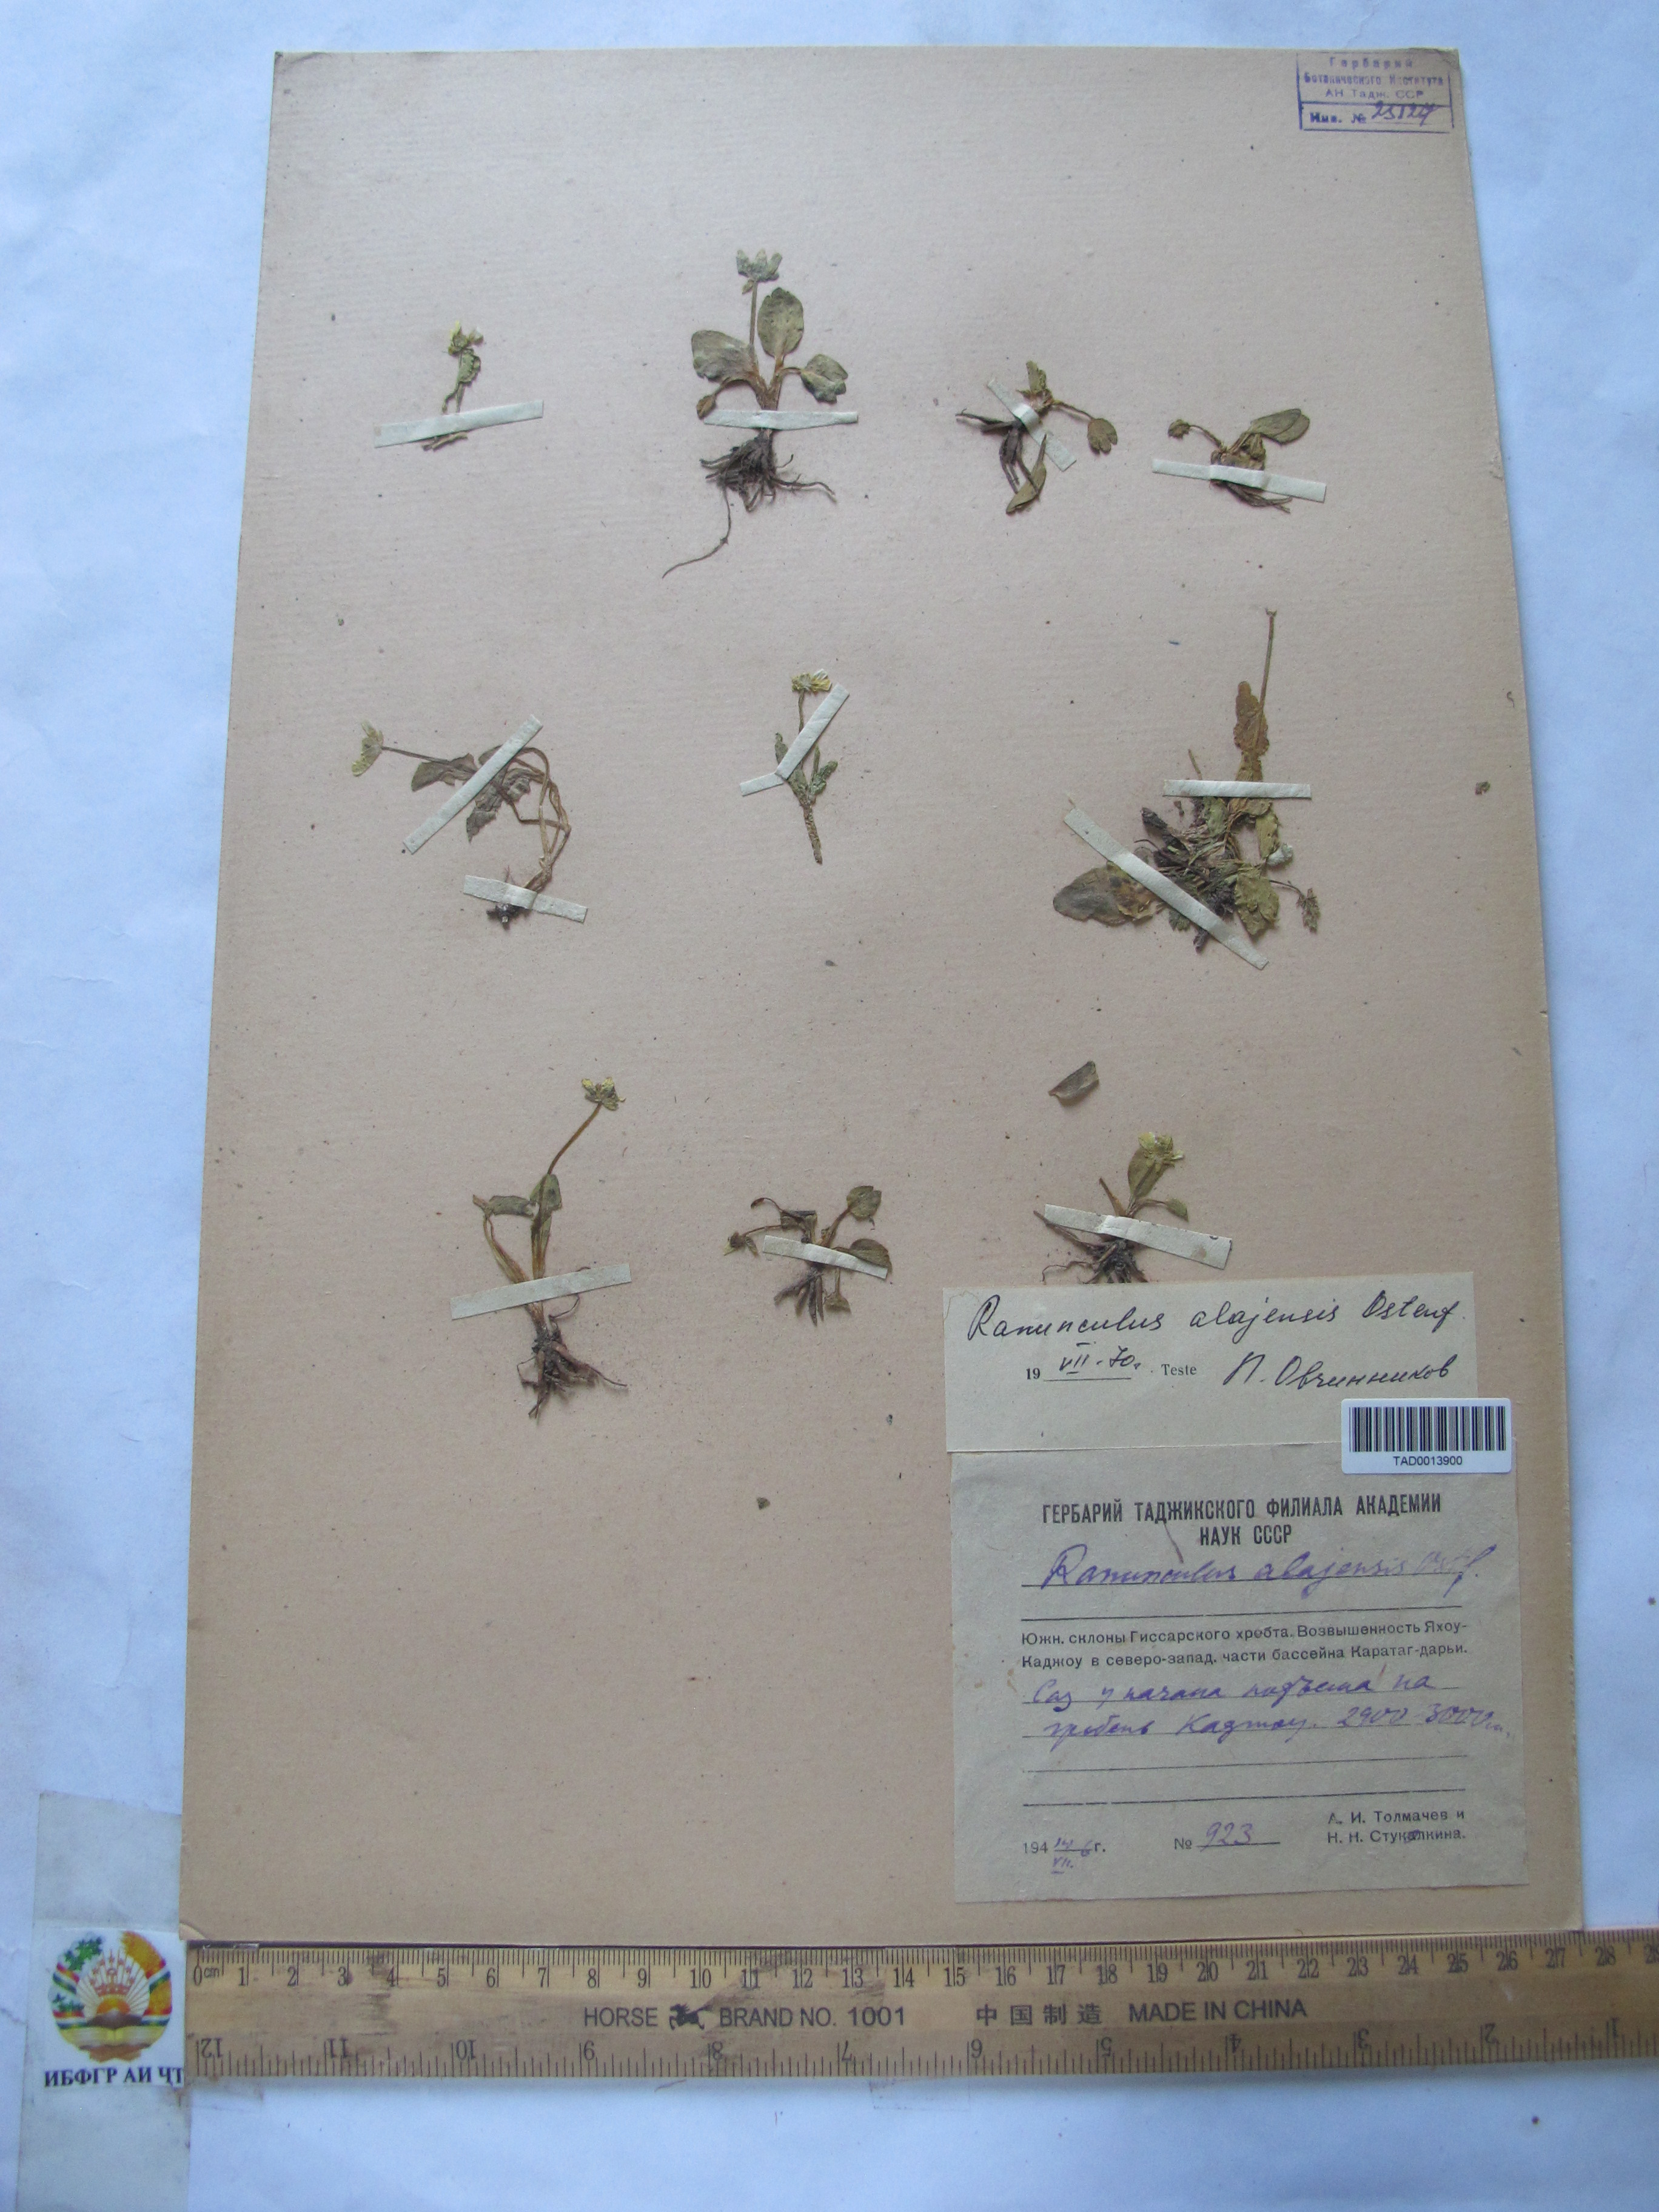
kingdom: Plantae
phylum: Tracheophyta
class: Magnoliopsida
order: Ranunculales
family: Ranunculaceae
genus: Ranunculus
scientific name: Ranunculus alaiensis
